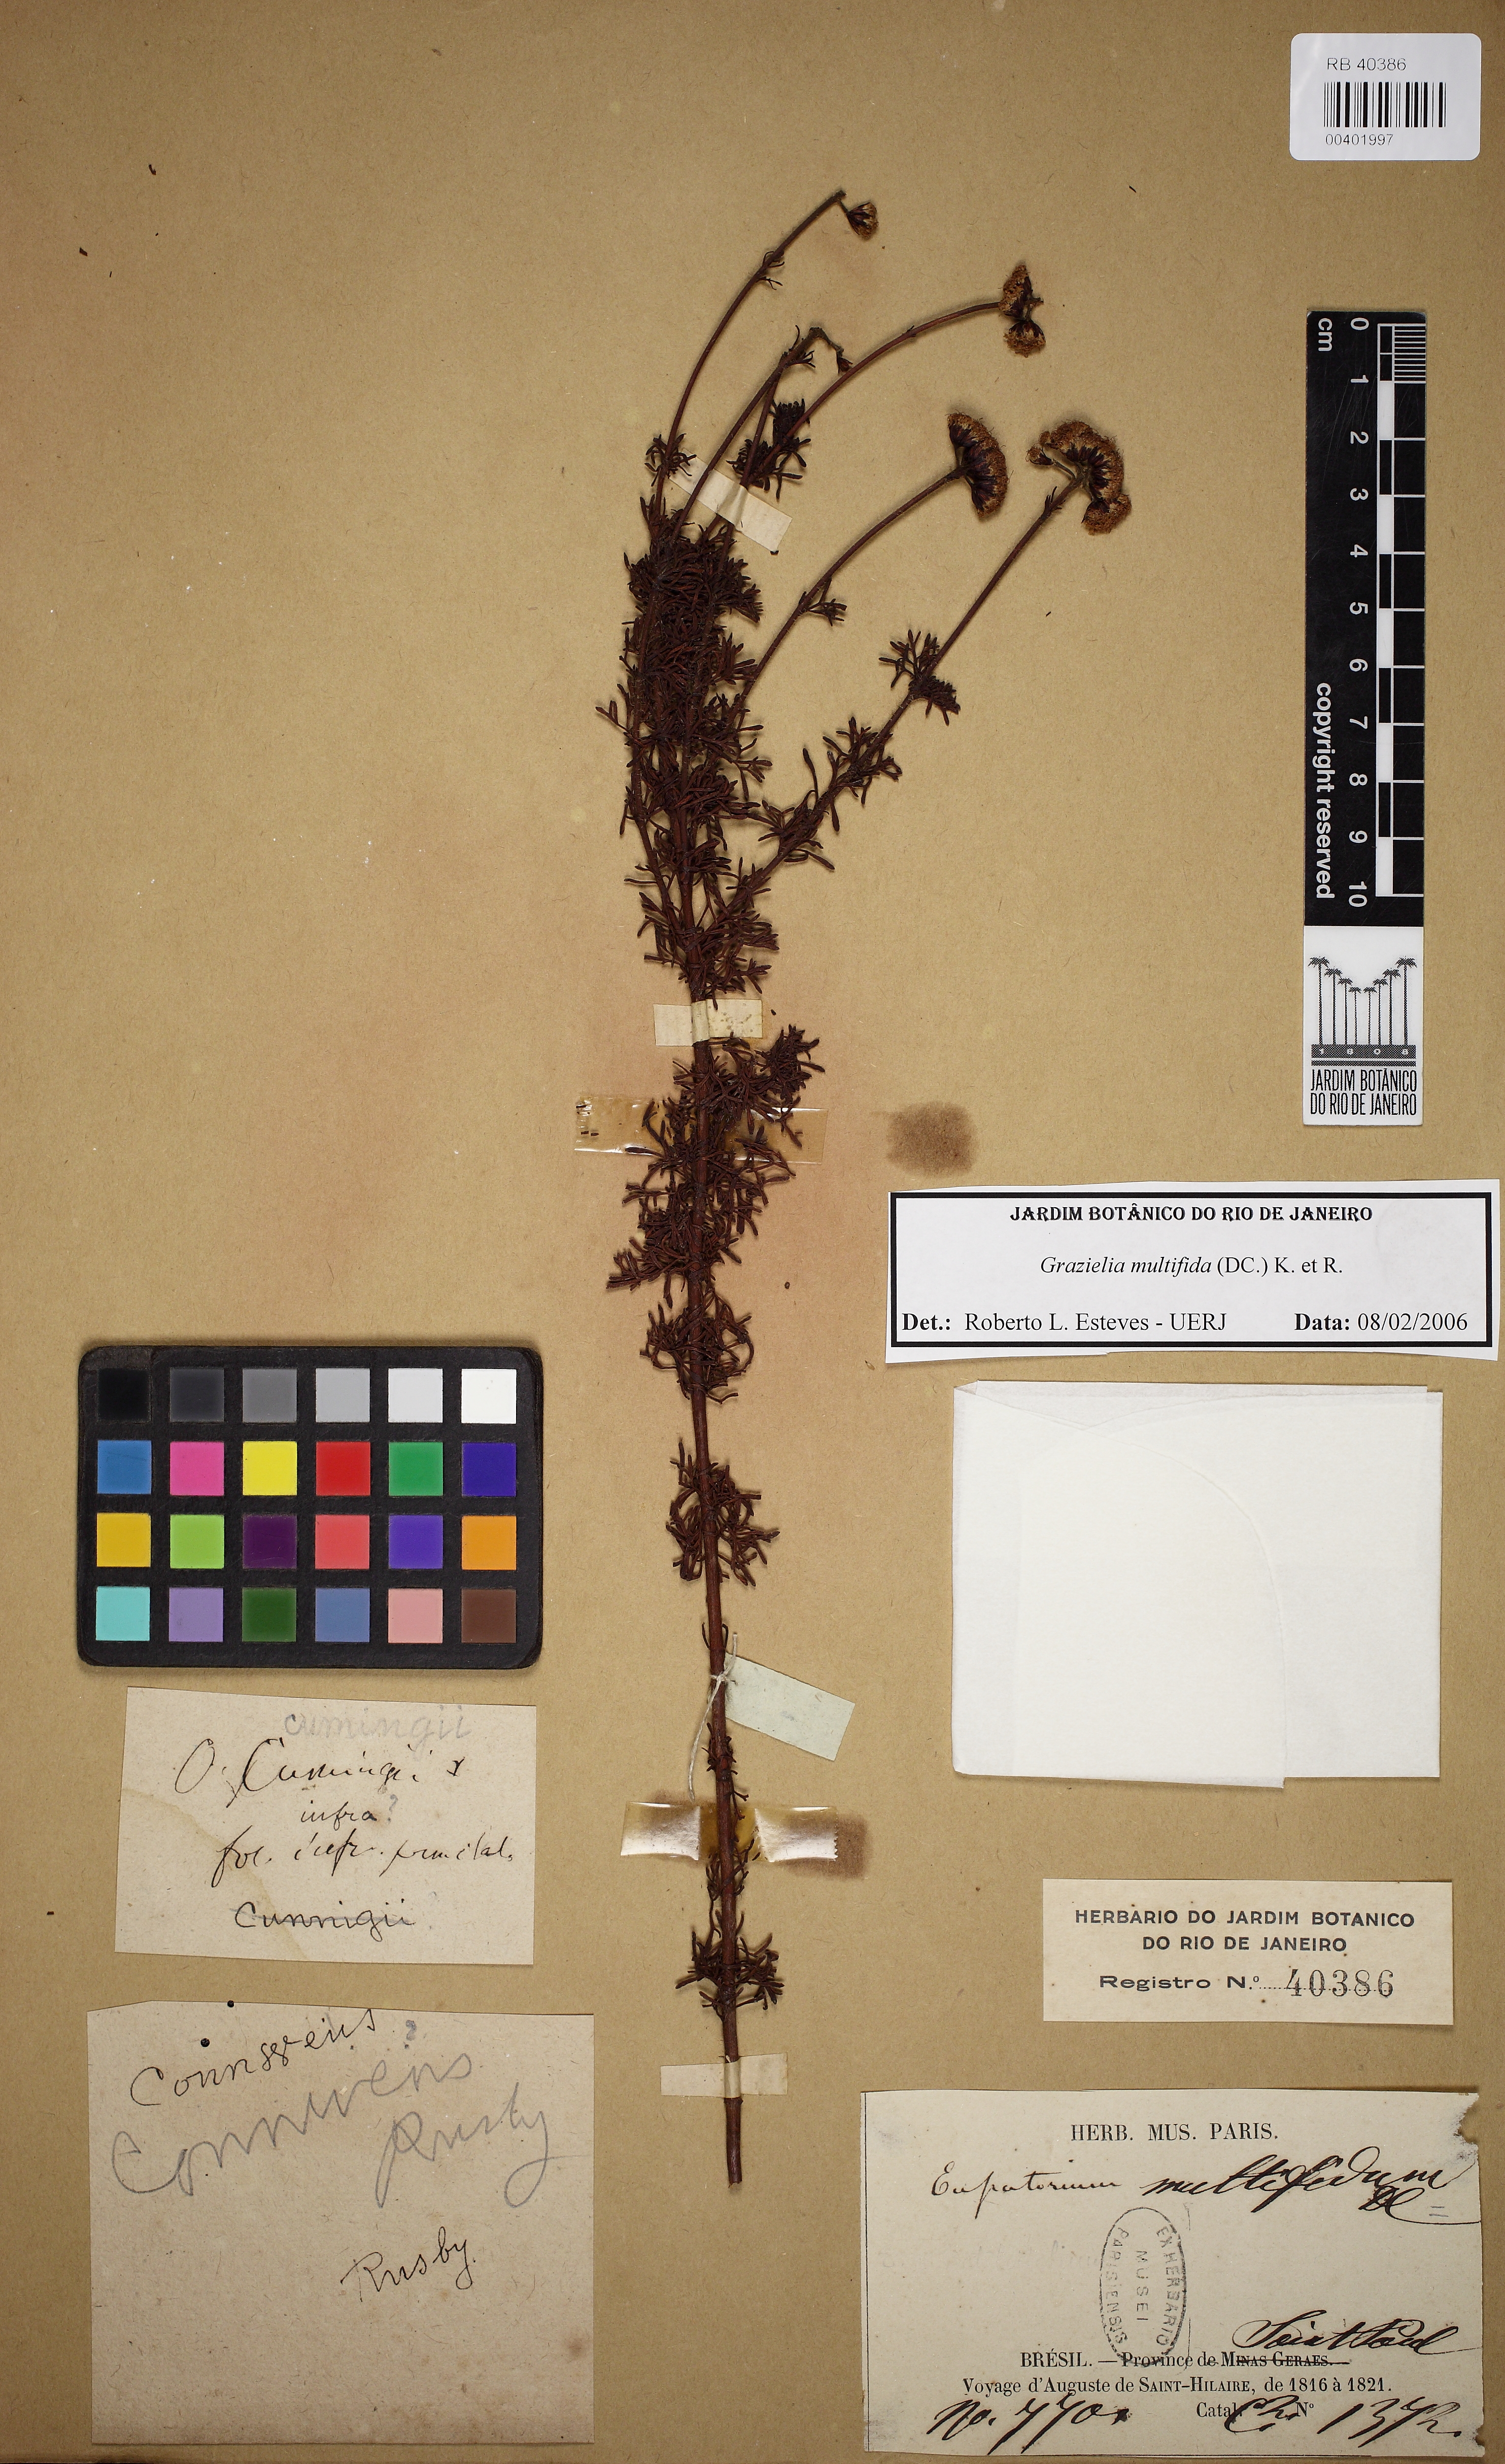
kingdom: Plantae
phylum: Tracheophyta
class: Magnoliopsida
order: Asterales
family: Asteraceae
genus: Grazielia
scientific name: Grazielia multifida
